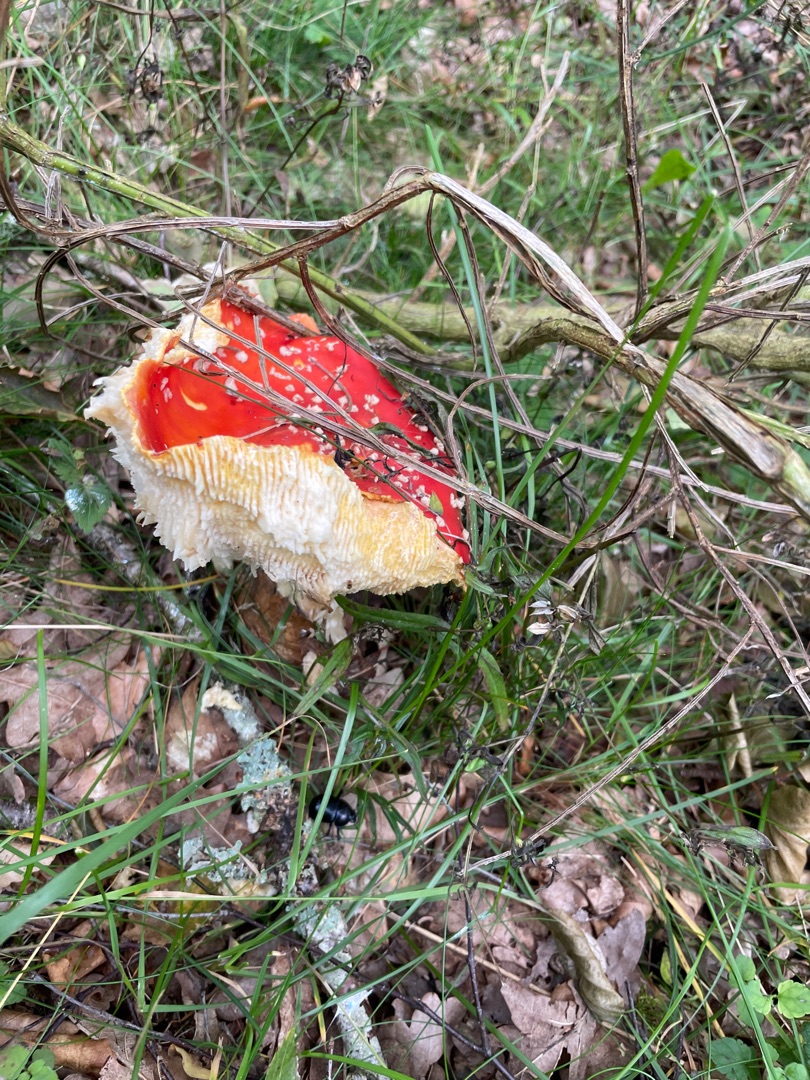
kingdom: Fungi
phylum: Basidiomycota
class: Agaricomycetes
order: Agaricales
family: Amanitaceae
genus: Amanita
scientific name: Amanita muscaria
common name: Rød fluesvamp
